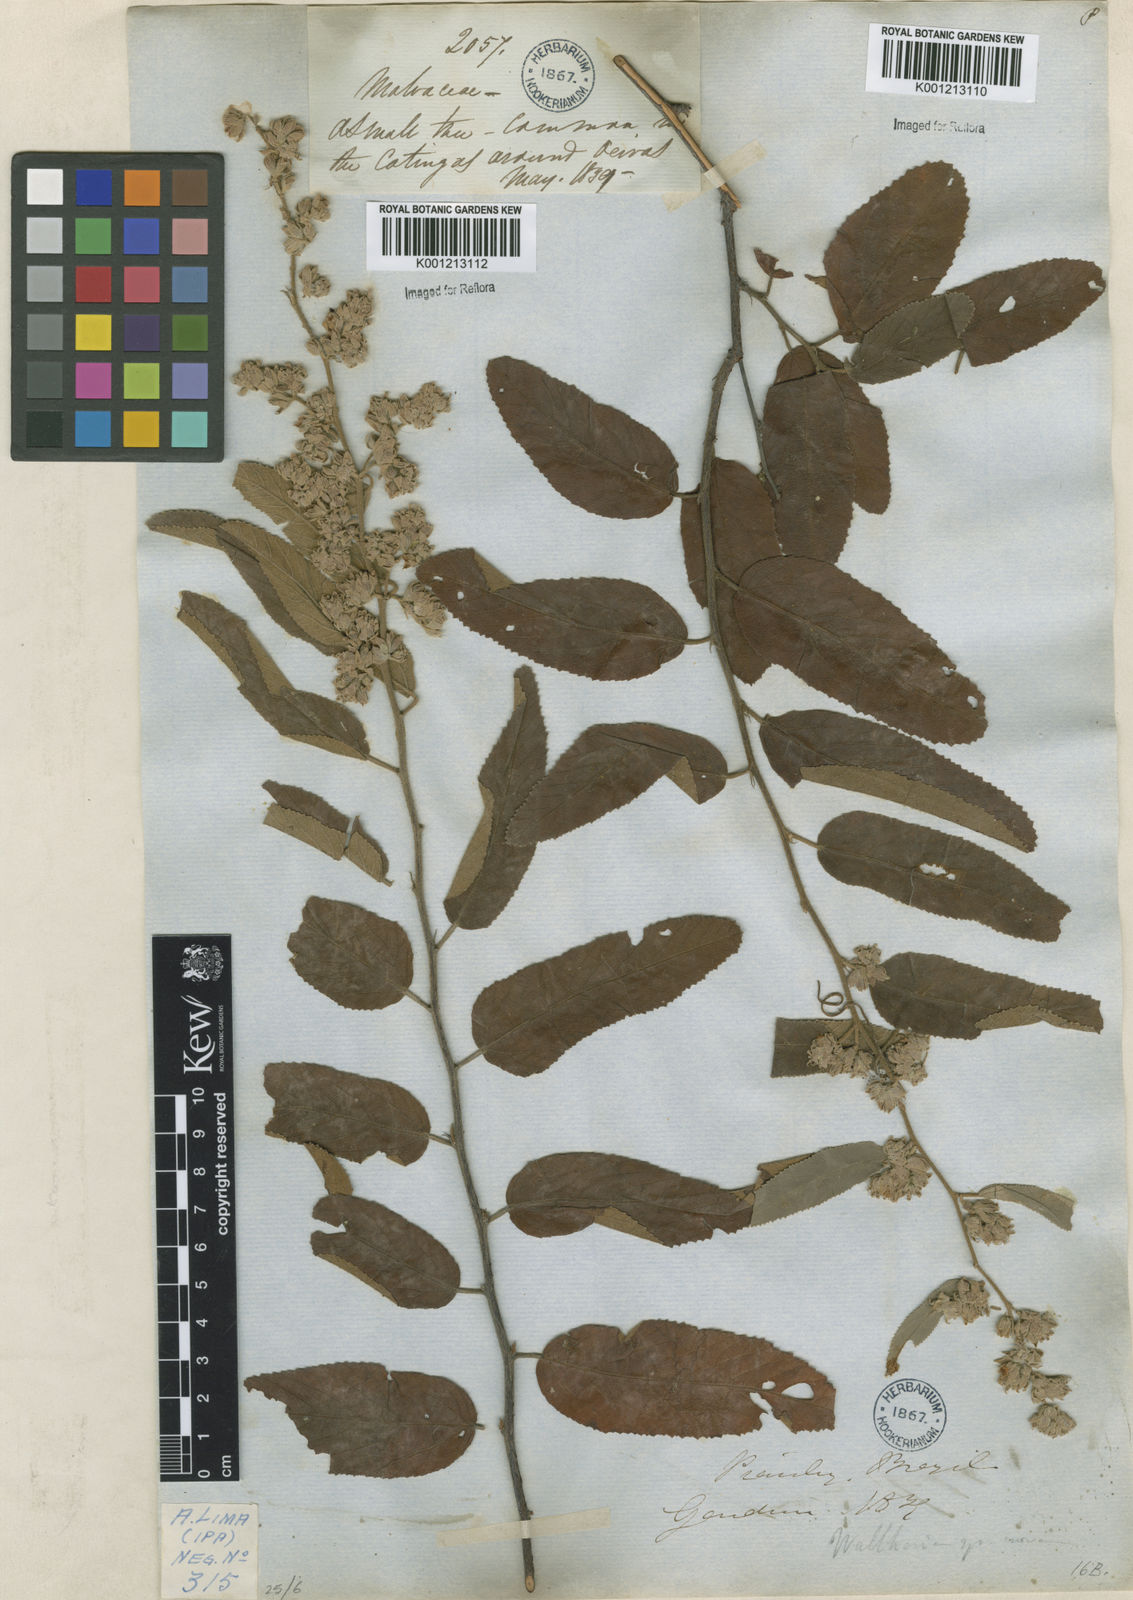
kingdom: Plantae
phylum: Tracheophyta
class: Magnoliopsida
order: Malvales
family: Malvaceae
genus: Waltheria
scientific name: Waltheria ferruginea
